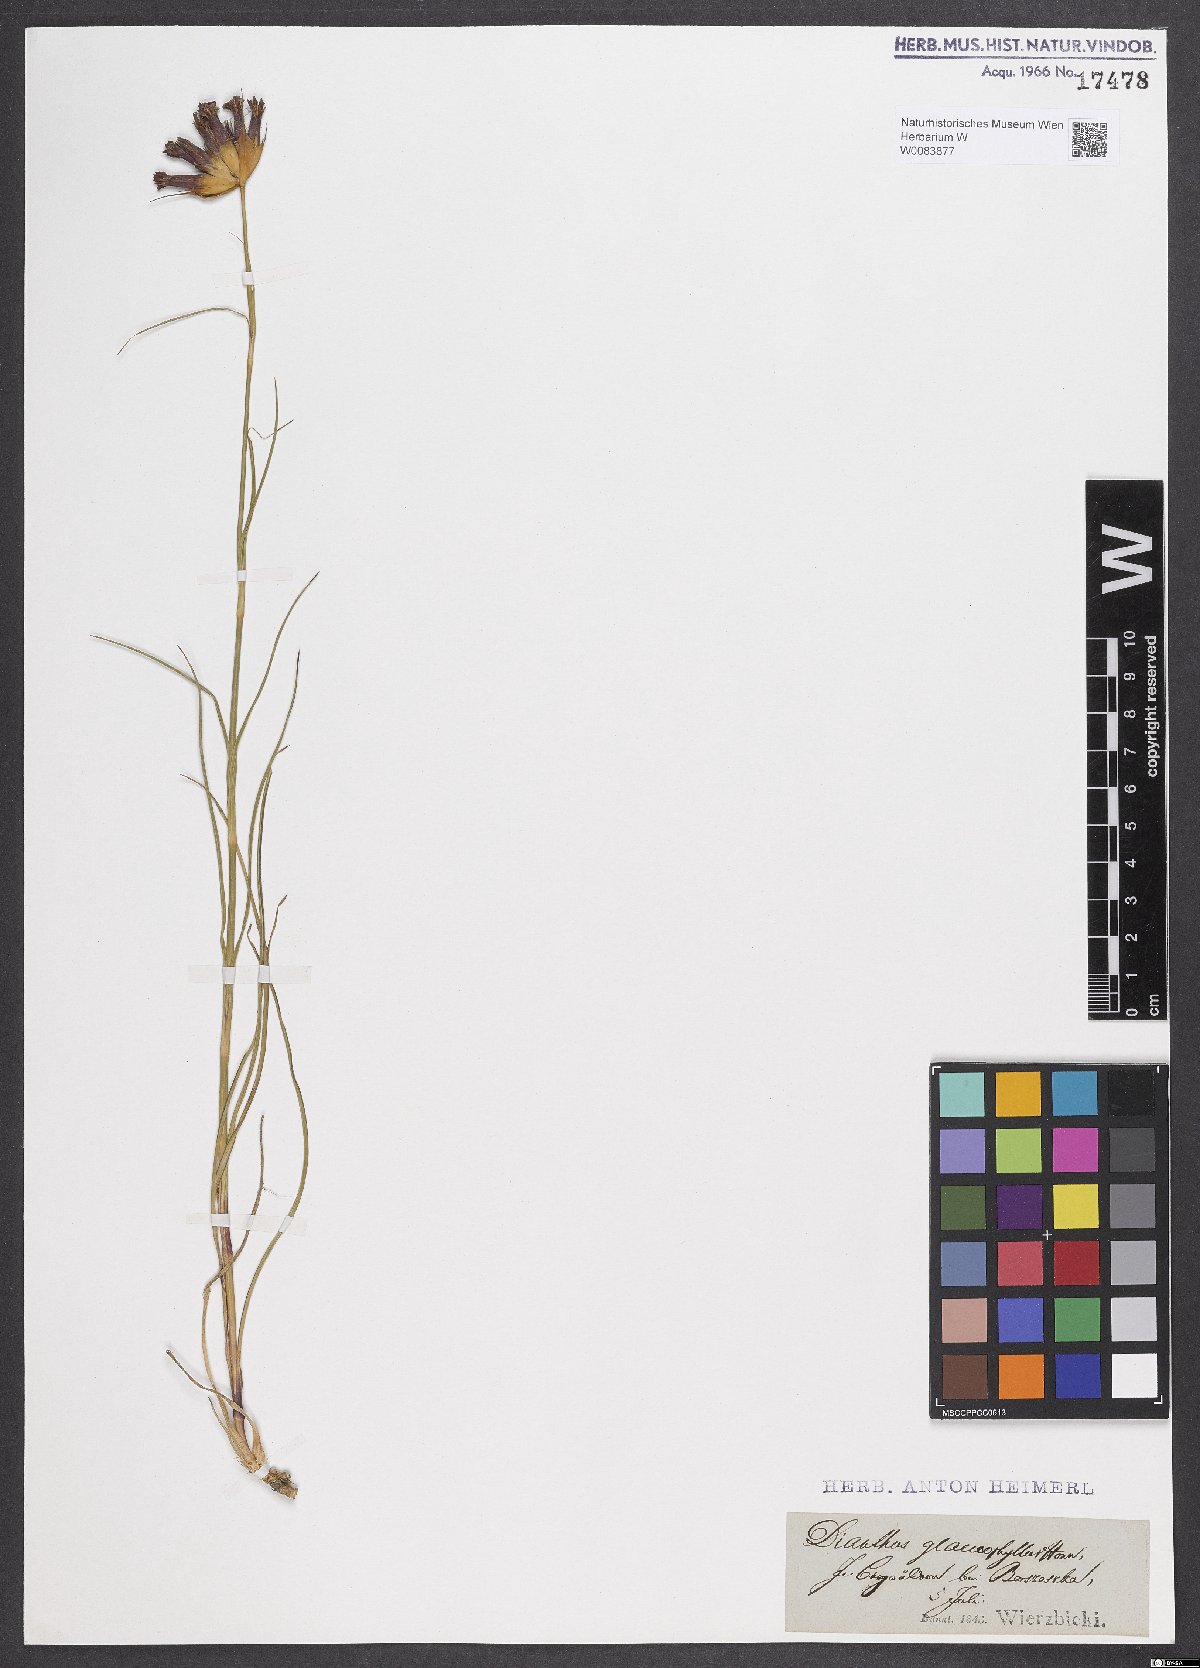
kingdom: Plantae
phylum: Tracheophyta
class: Magnoliopsida
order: Caryophyllales
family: Caryophyllaceae
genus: Dianthus
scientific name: Dianthus balbisii
